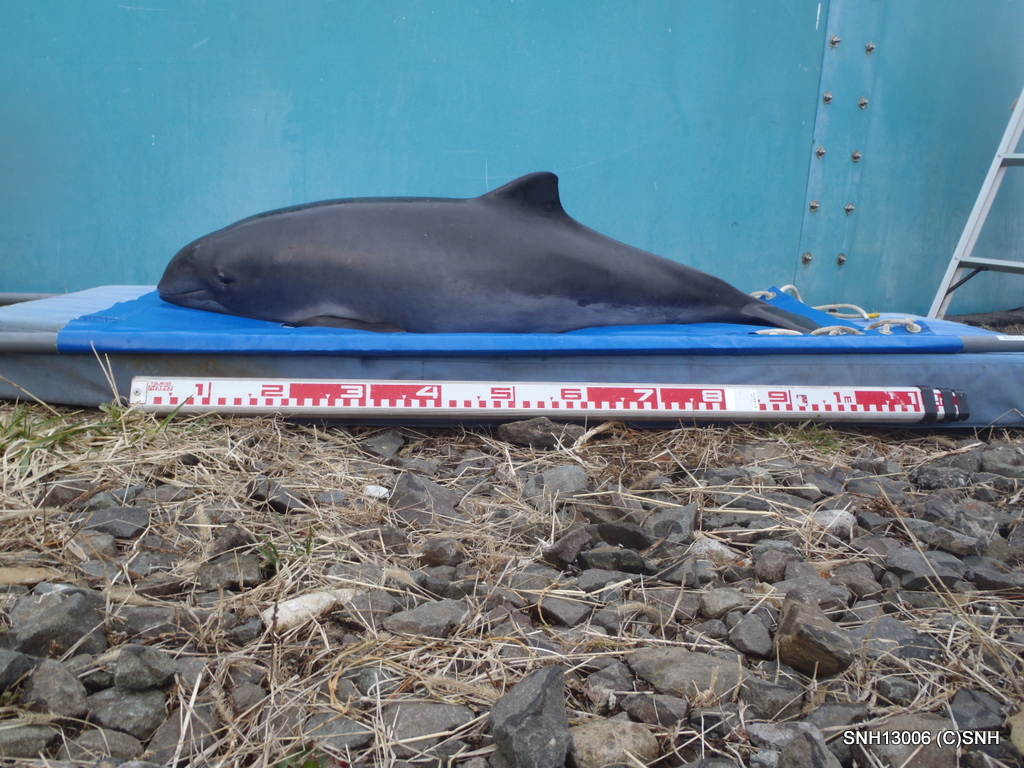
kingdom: Animalia
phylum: Chordata
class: Mammalia
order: Cetacea
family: Phocoenidae
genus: Phocoena
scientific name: Phocoena phocoena
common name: Harbour porpoise
